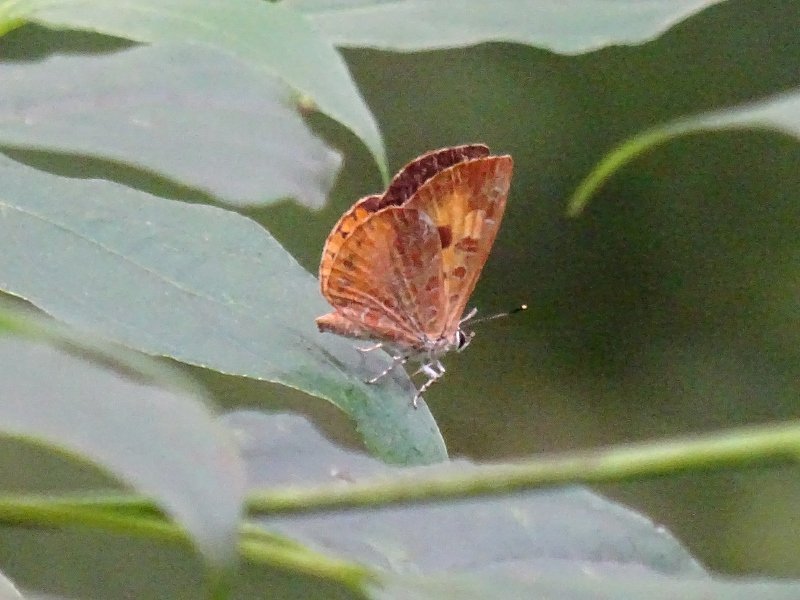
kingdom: Animalia
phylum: Arthropoda
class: Insecta
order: Lepidoptera
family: Lycaenidae
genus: Feniseca
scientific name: Feniseca tarquinius
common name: Harvester
